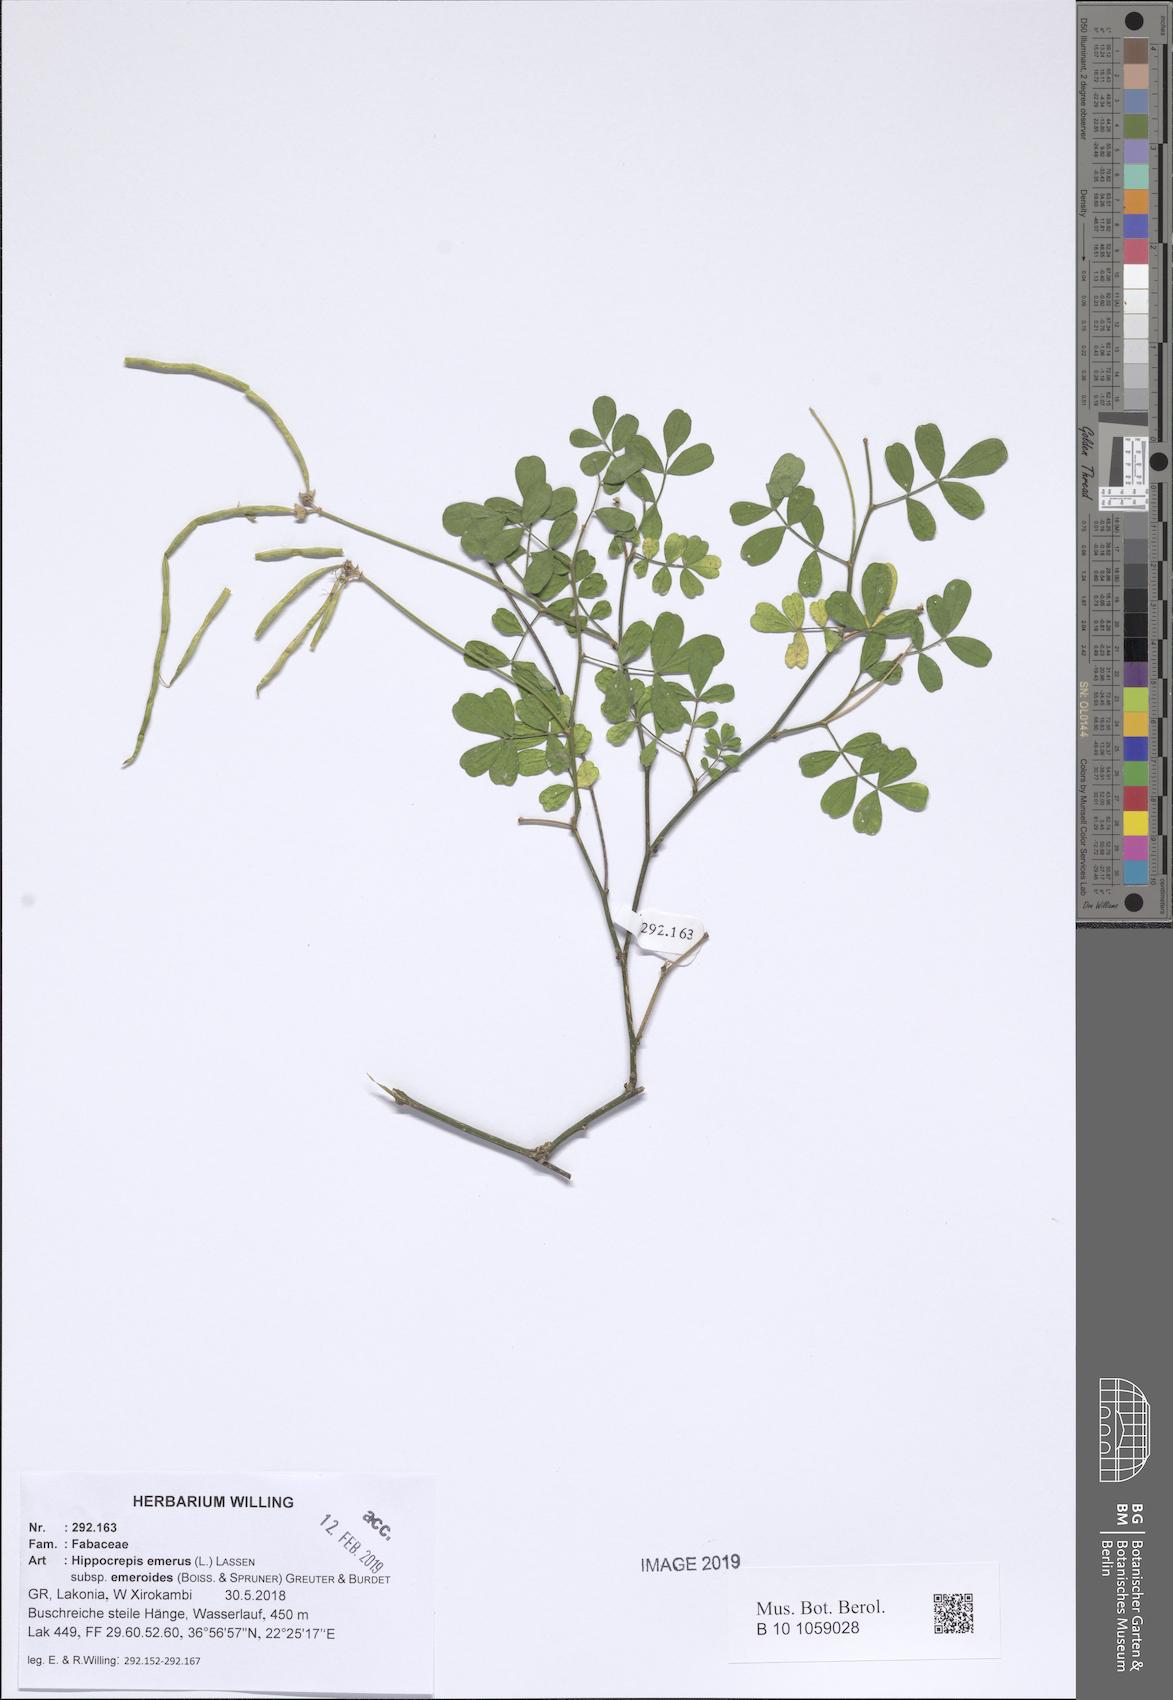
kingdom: Plantae
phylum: Tracheophyta
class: Magnoliopsida
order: Fabales
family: Fabaceae
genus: Hippocrepis
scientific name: Hippocrepis emerus
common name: Scorpion senna
